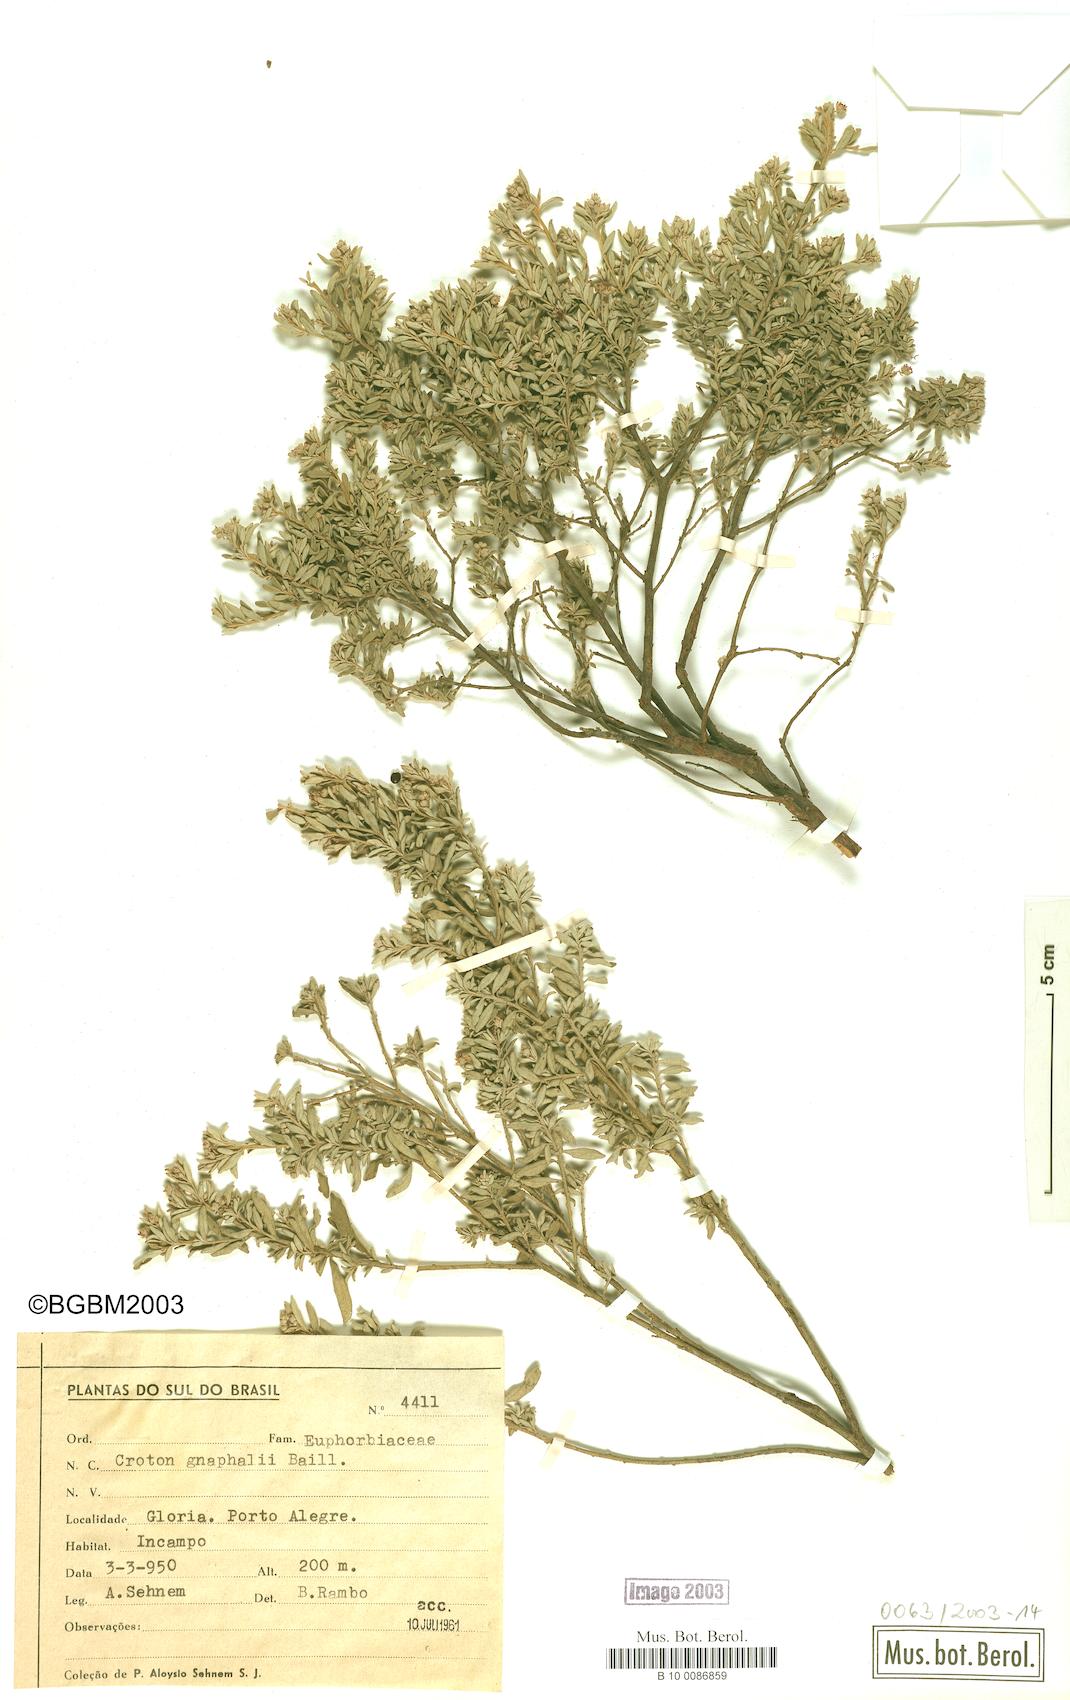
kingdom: Plantae
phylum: Tracheophyta
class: Magnoliopsida
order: Malpighiales
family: Euphorbiaceae
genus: Croton
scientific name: Croton gnaphalii
